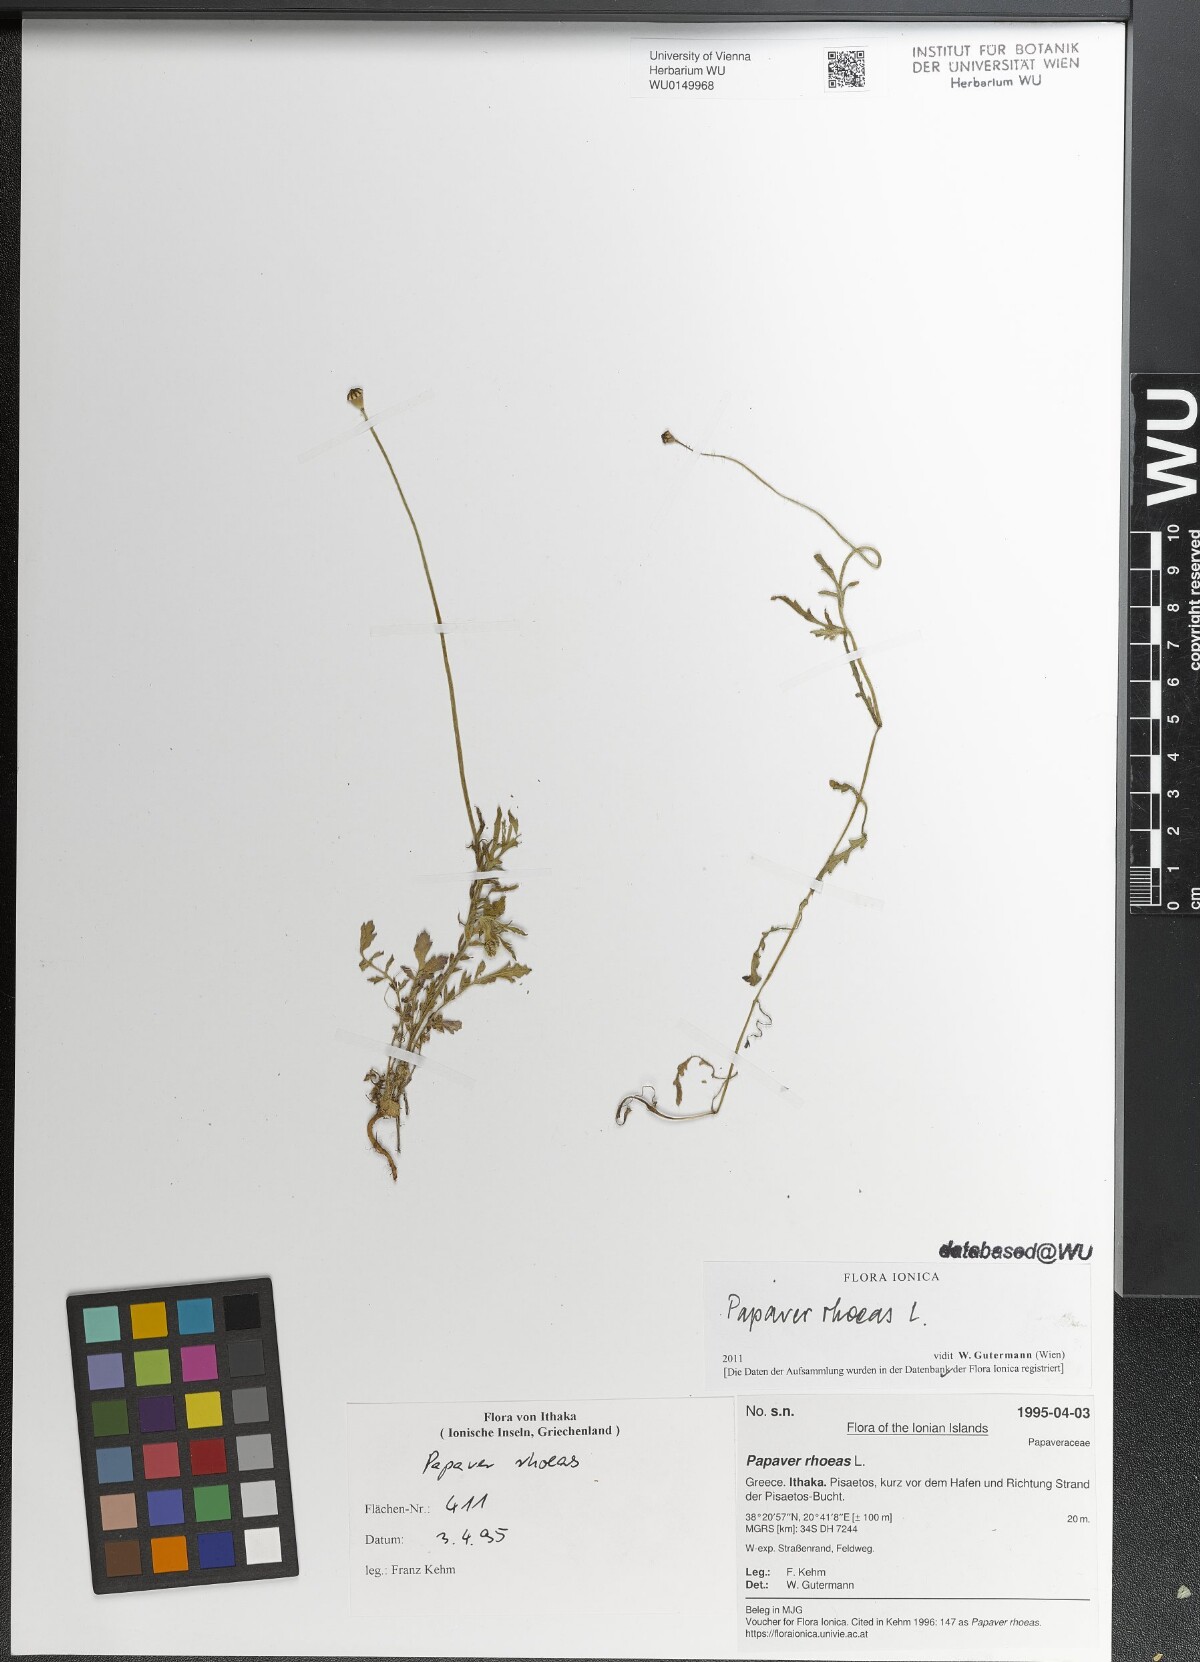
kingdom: Plantae
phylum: Tracheophyta
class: Magnoliopsida
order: Ranunculales
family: Papaveraceae
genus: Papaver
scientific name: Papaver rhoeas
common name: Corn poppy
